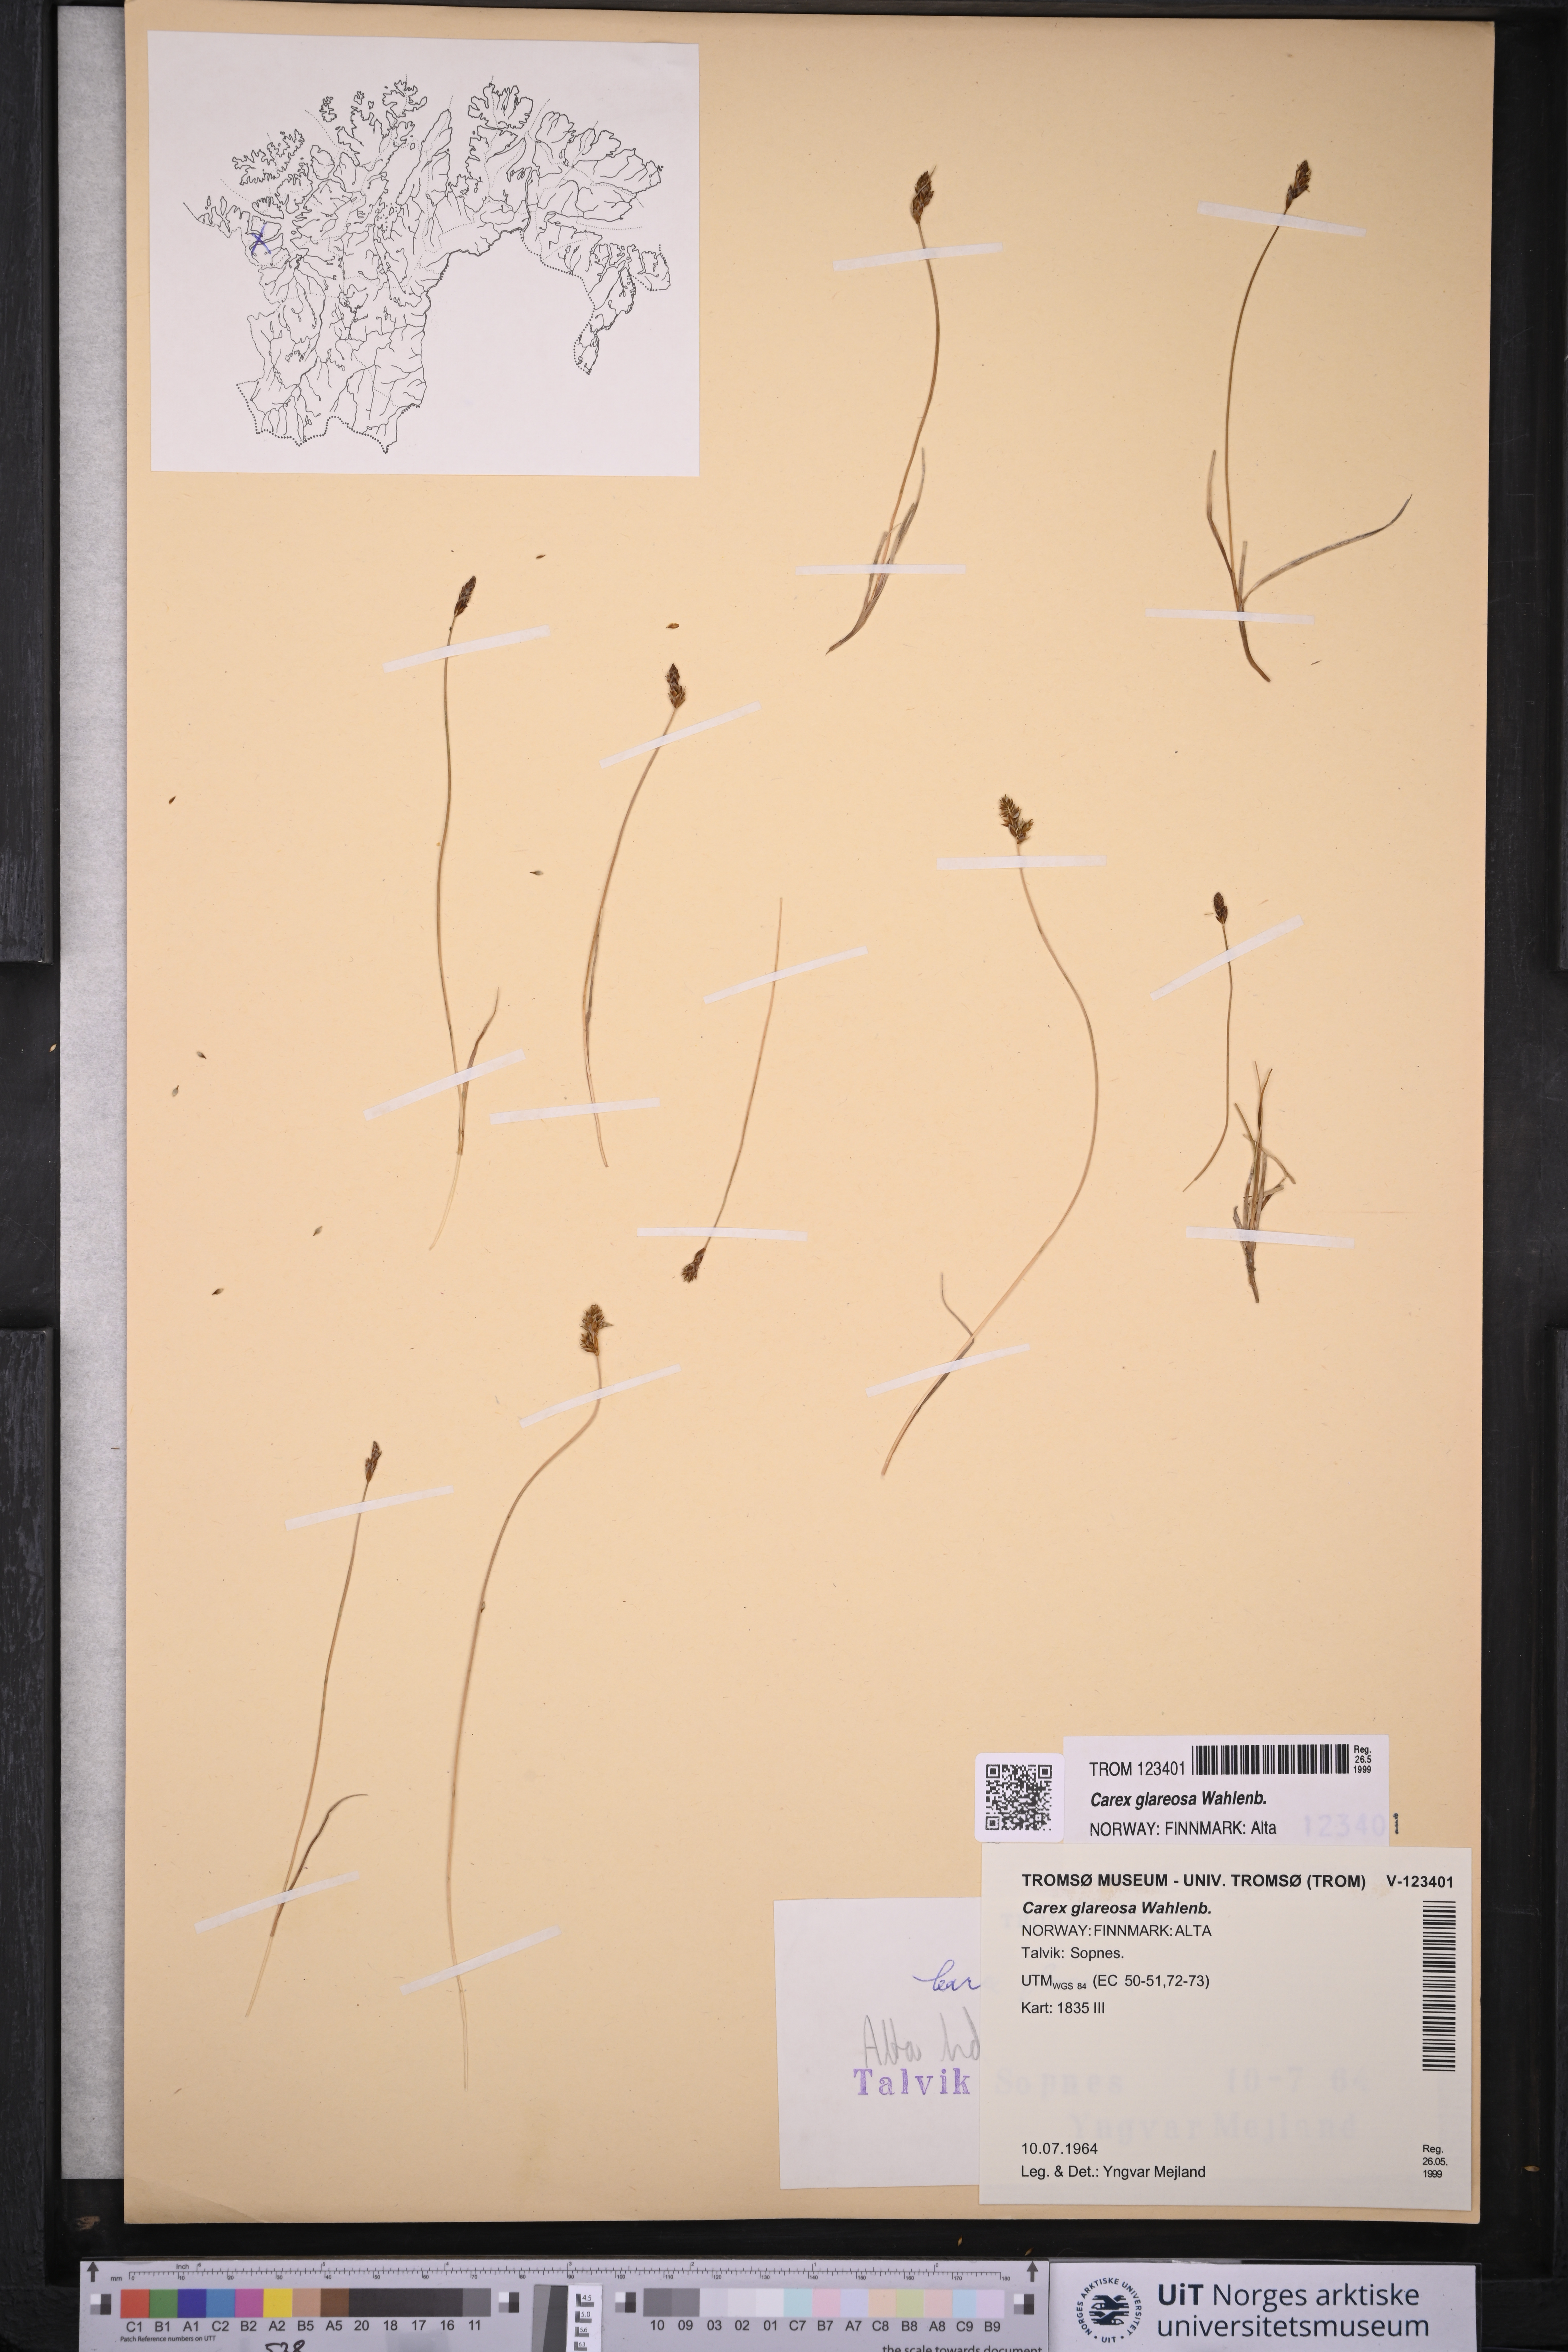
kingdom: Plantae
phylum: Tracheophyta
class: Liliopsida
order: Poales
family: Cyperaceae
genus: Carex
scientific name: Carex glareosa
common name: Clustered sedge
